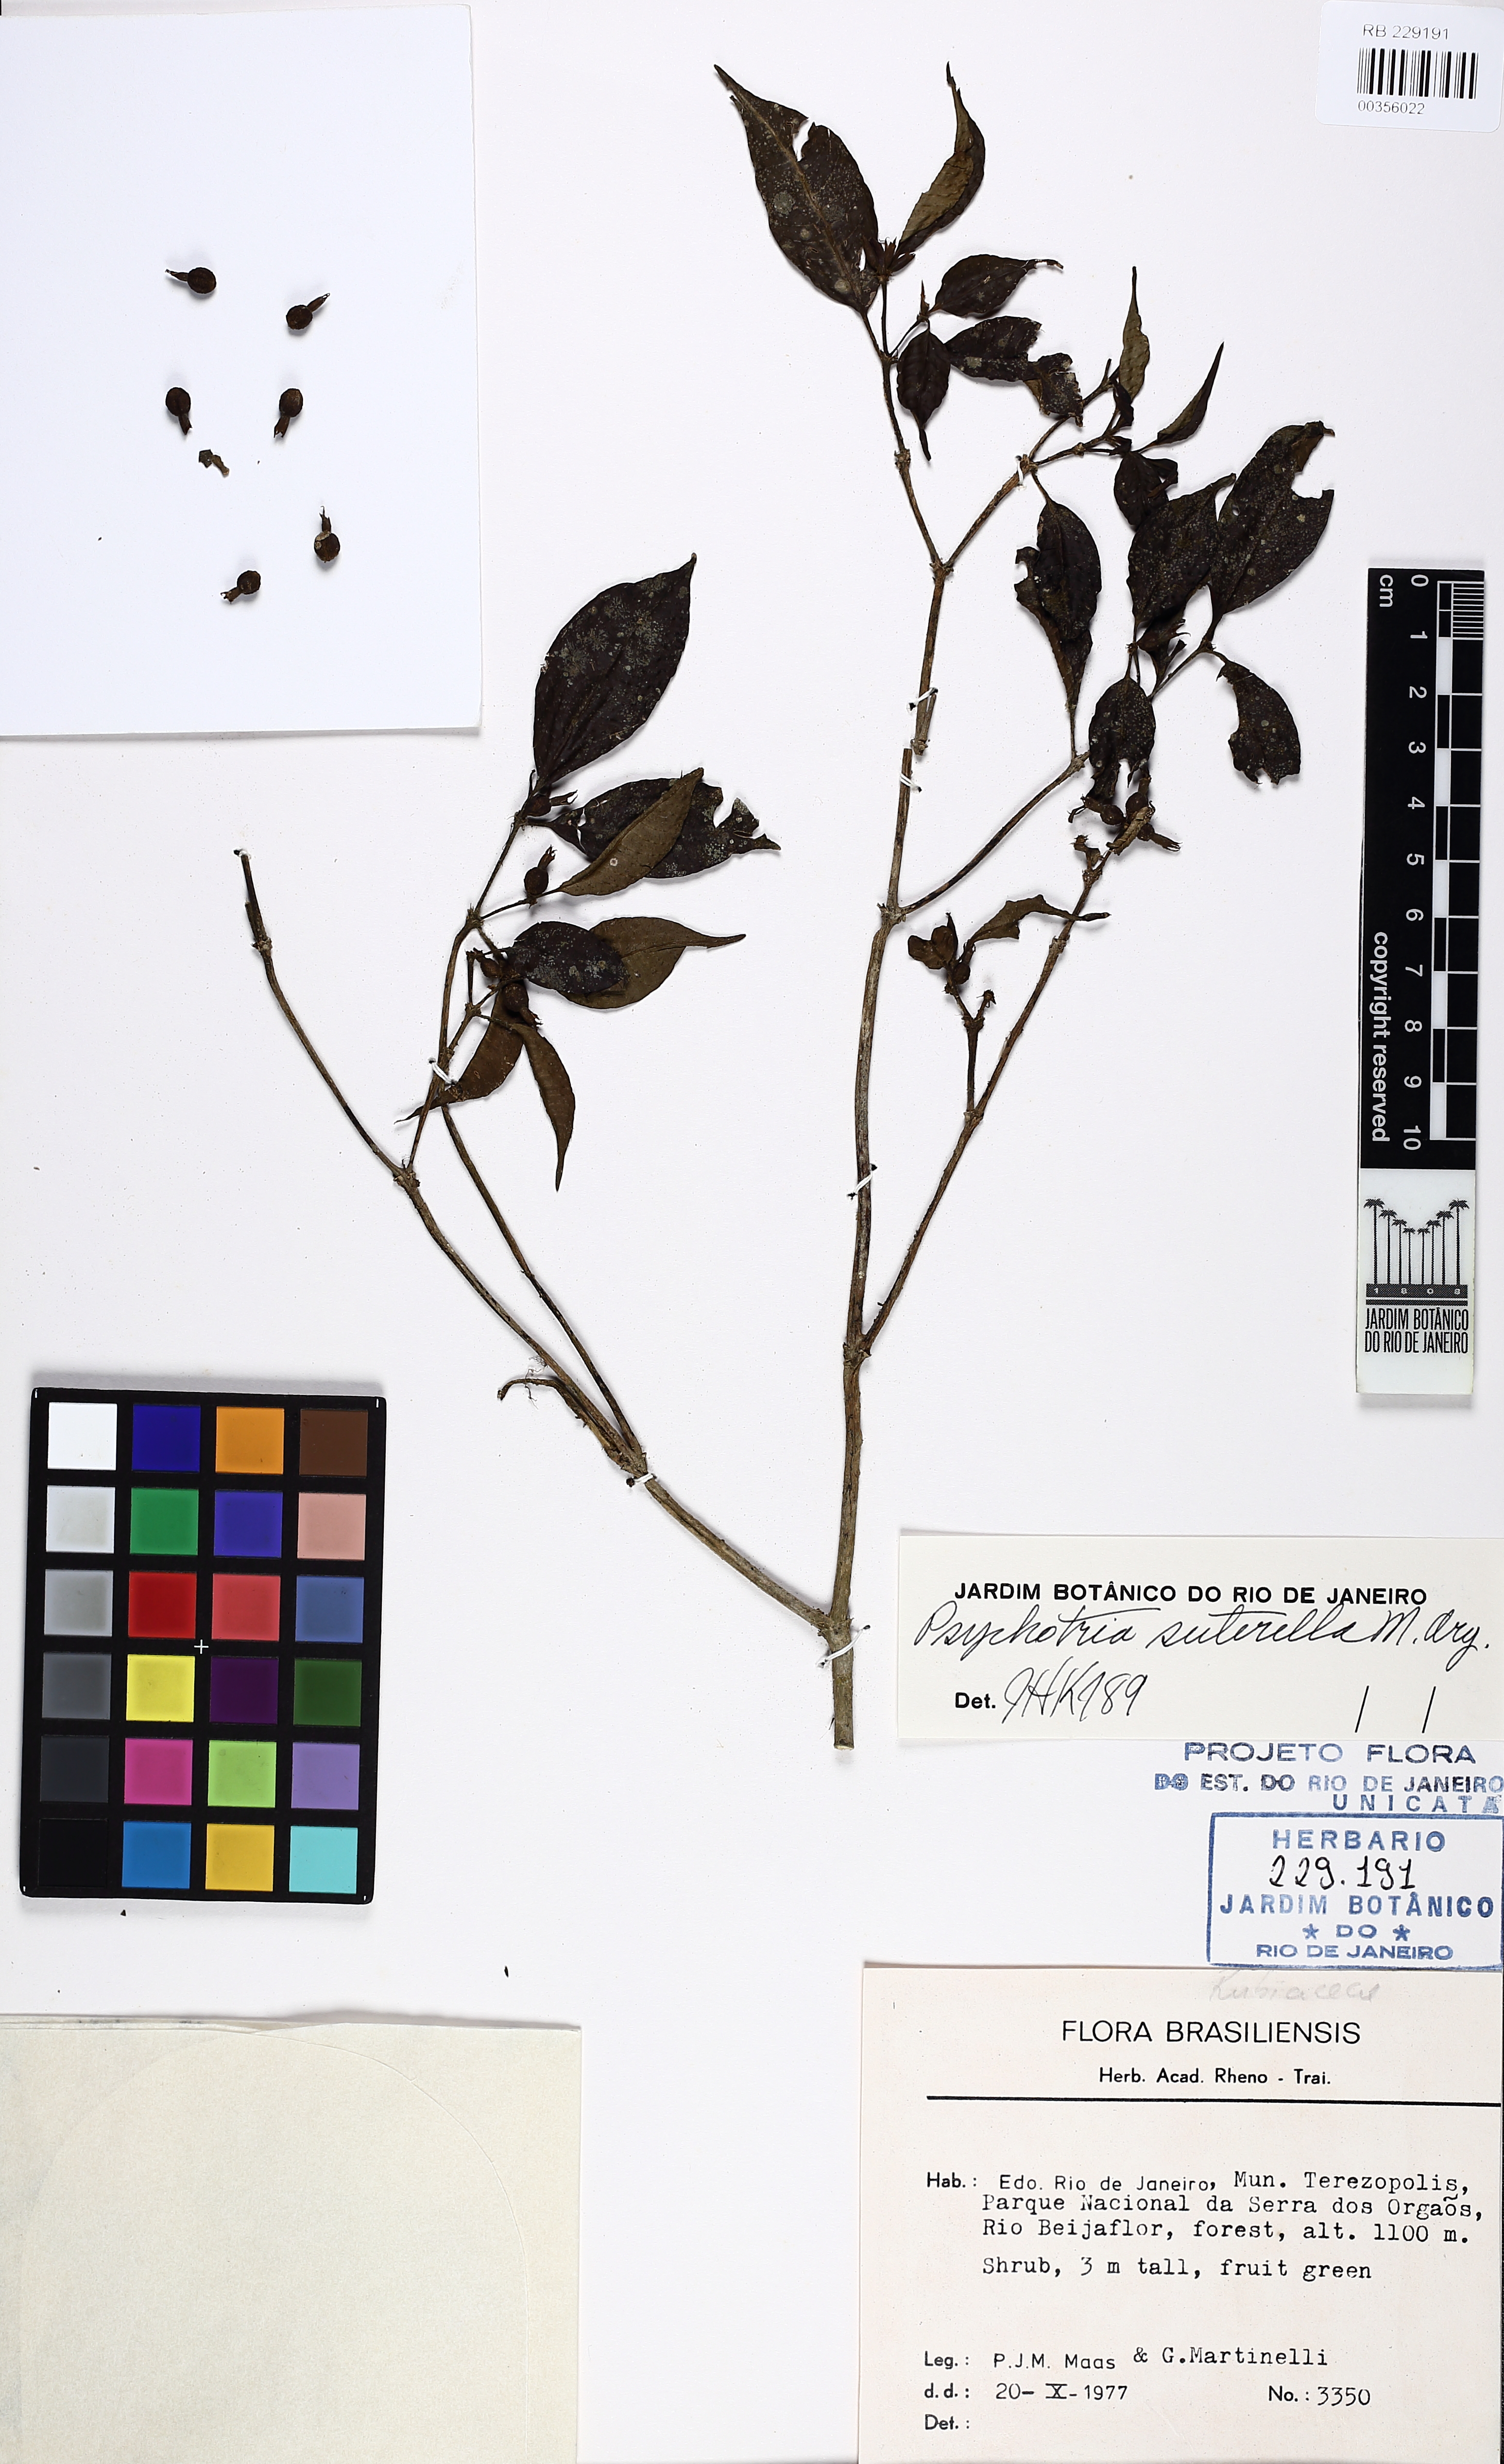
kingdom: Plantae
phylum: Tracheophyta
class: Magnoliopsida
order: Gentianales
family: Rubiaceae
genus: Psychotria
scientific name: Psychotria suterella
